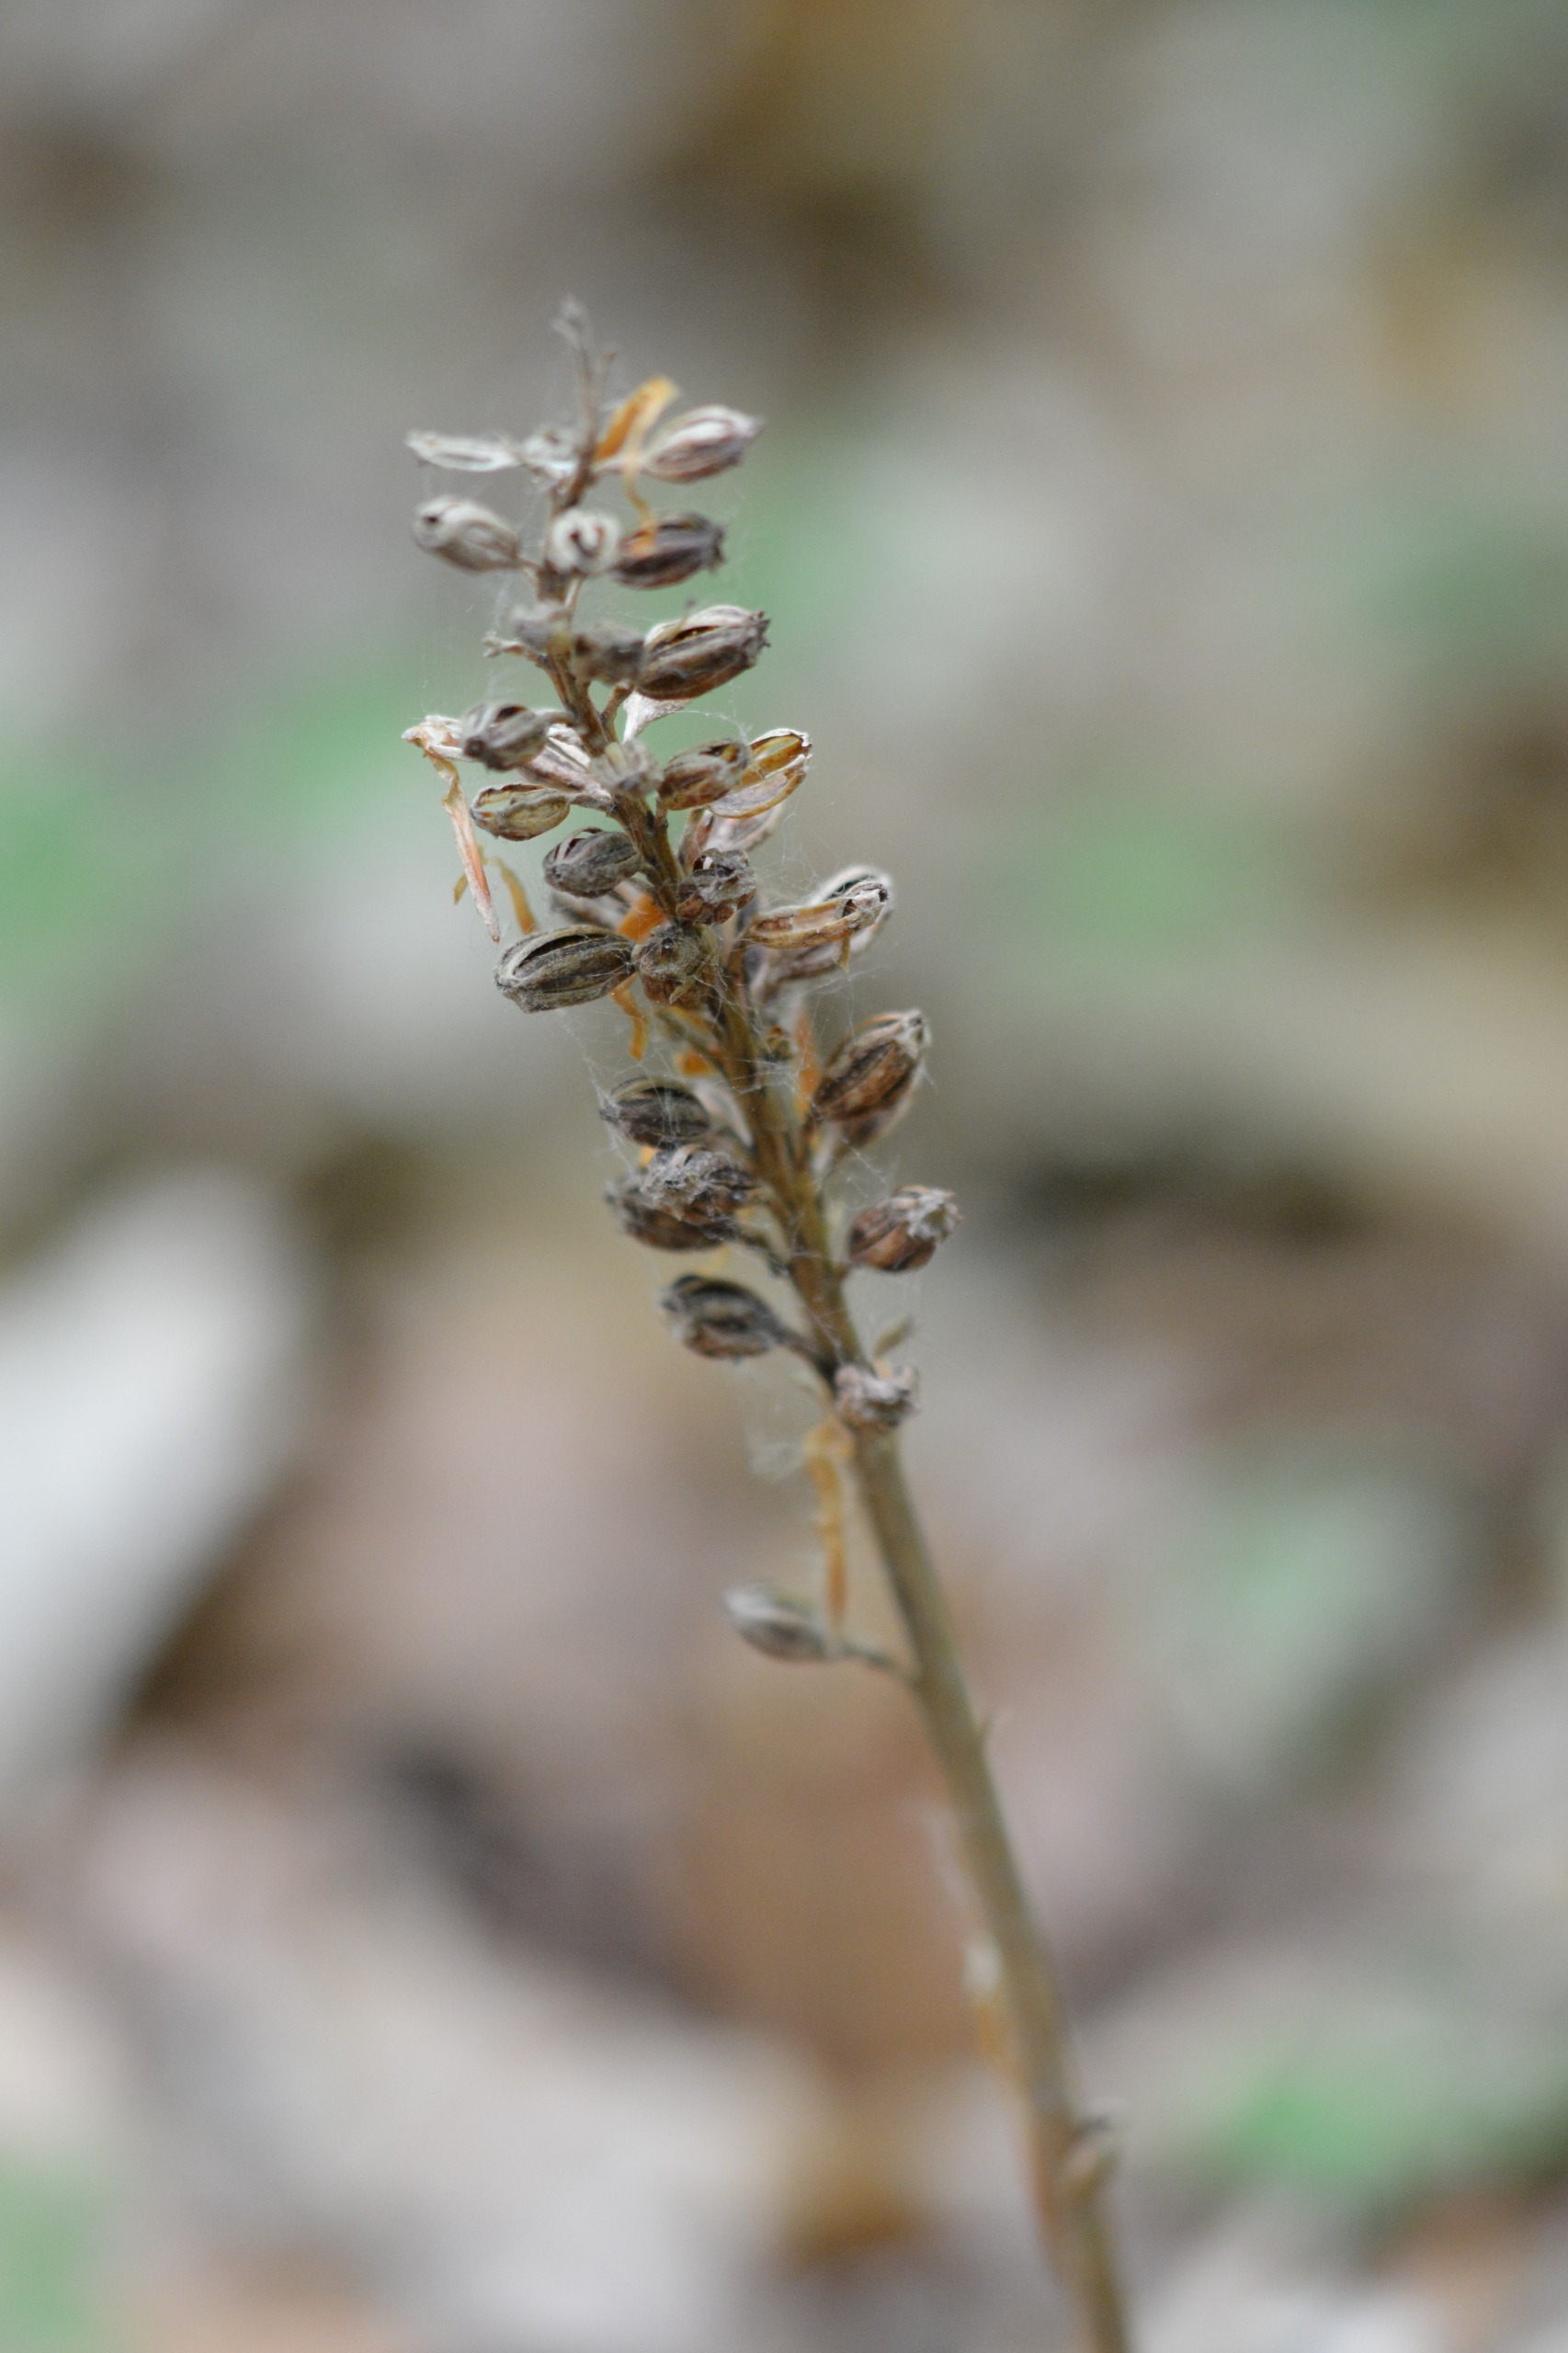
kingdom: Plantae
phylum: Tracheophyta
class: Liliopsida
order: Asparagales
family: Orchidaceae
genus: Neottia
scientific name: Neottia nidus-avis
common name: Rederod
